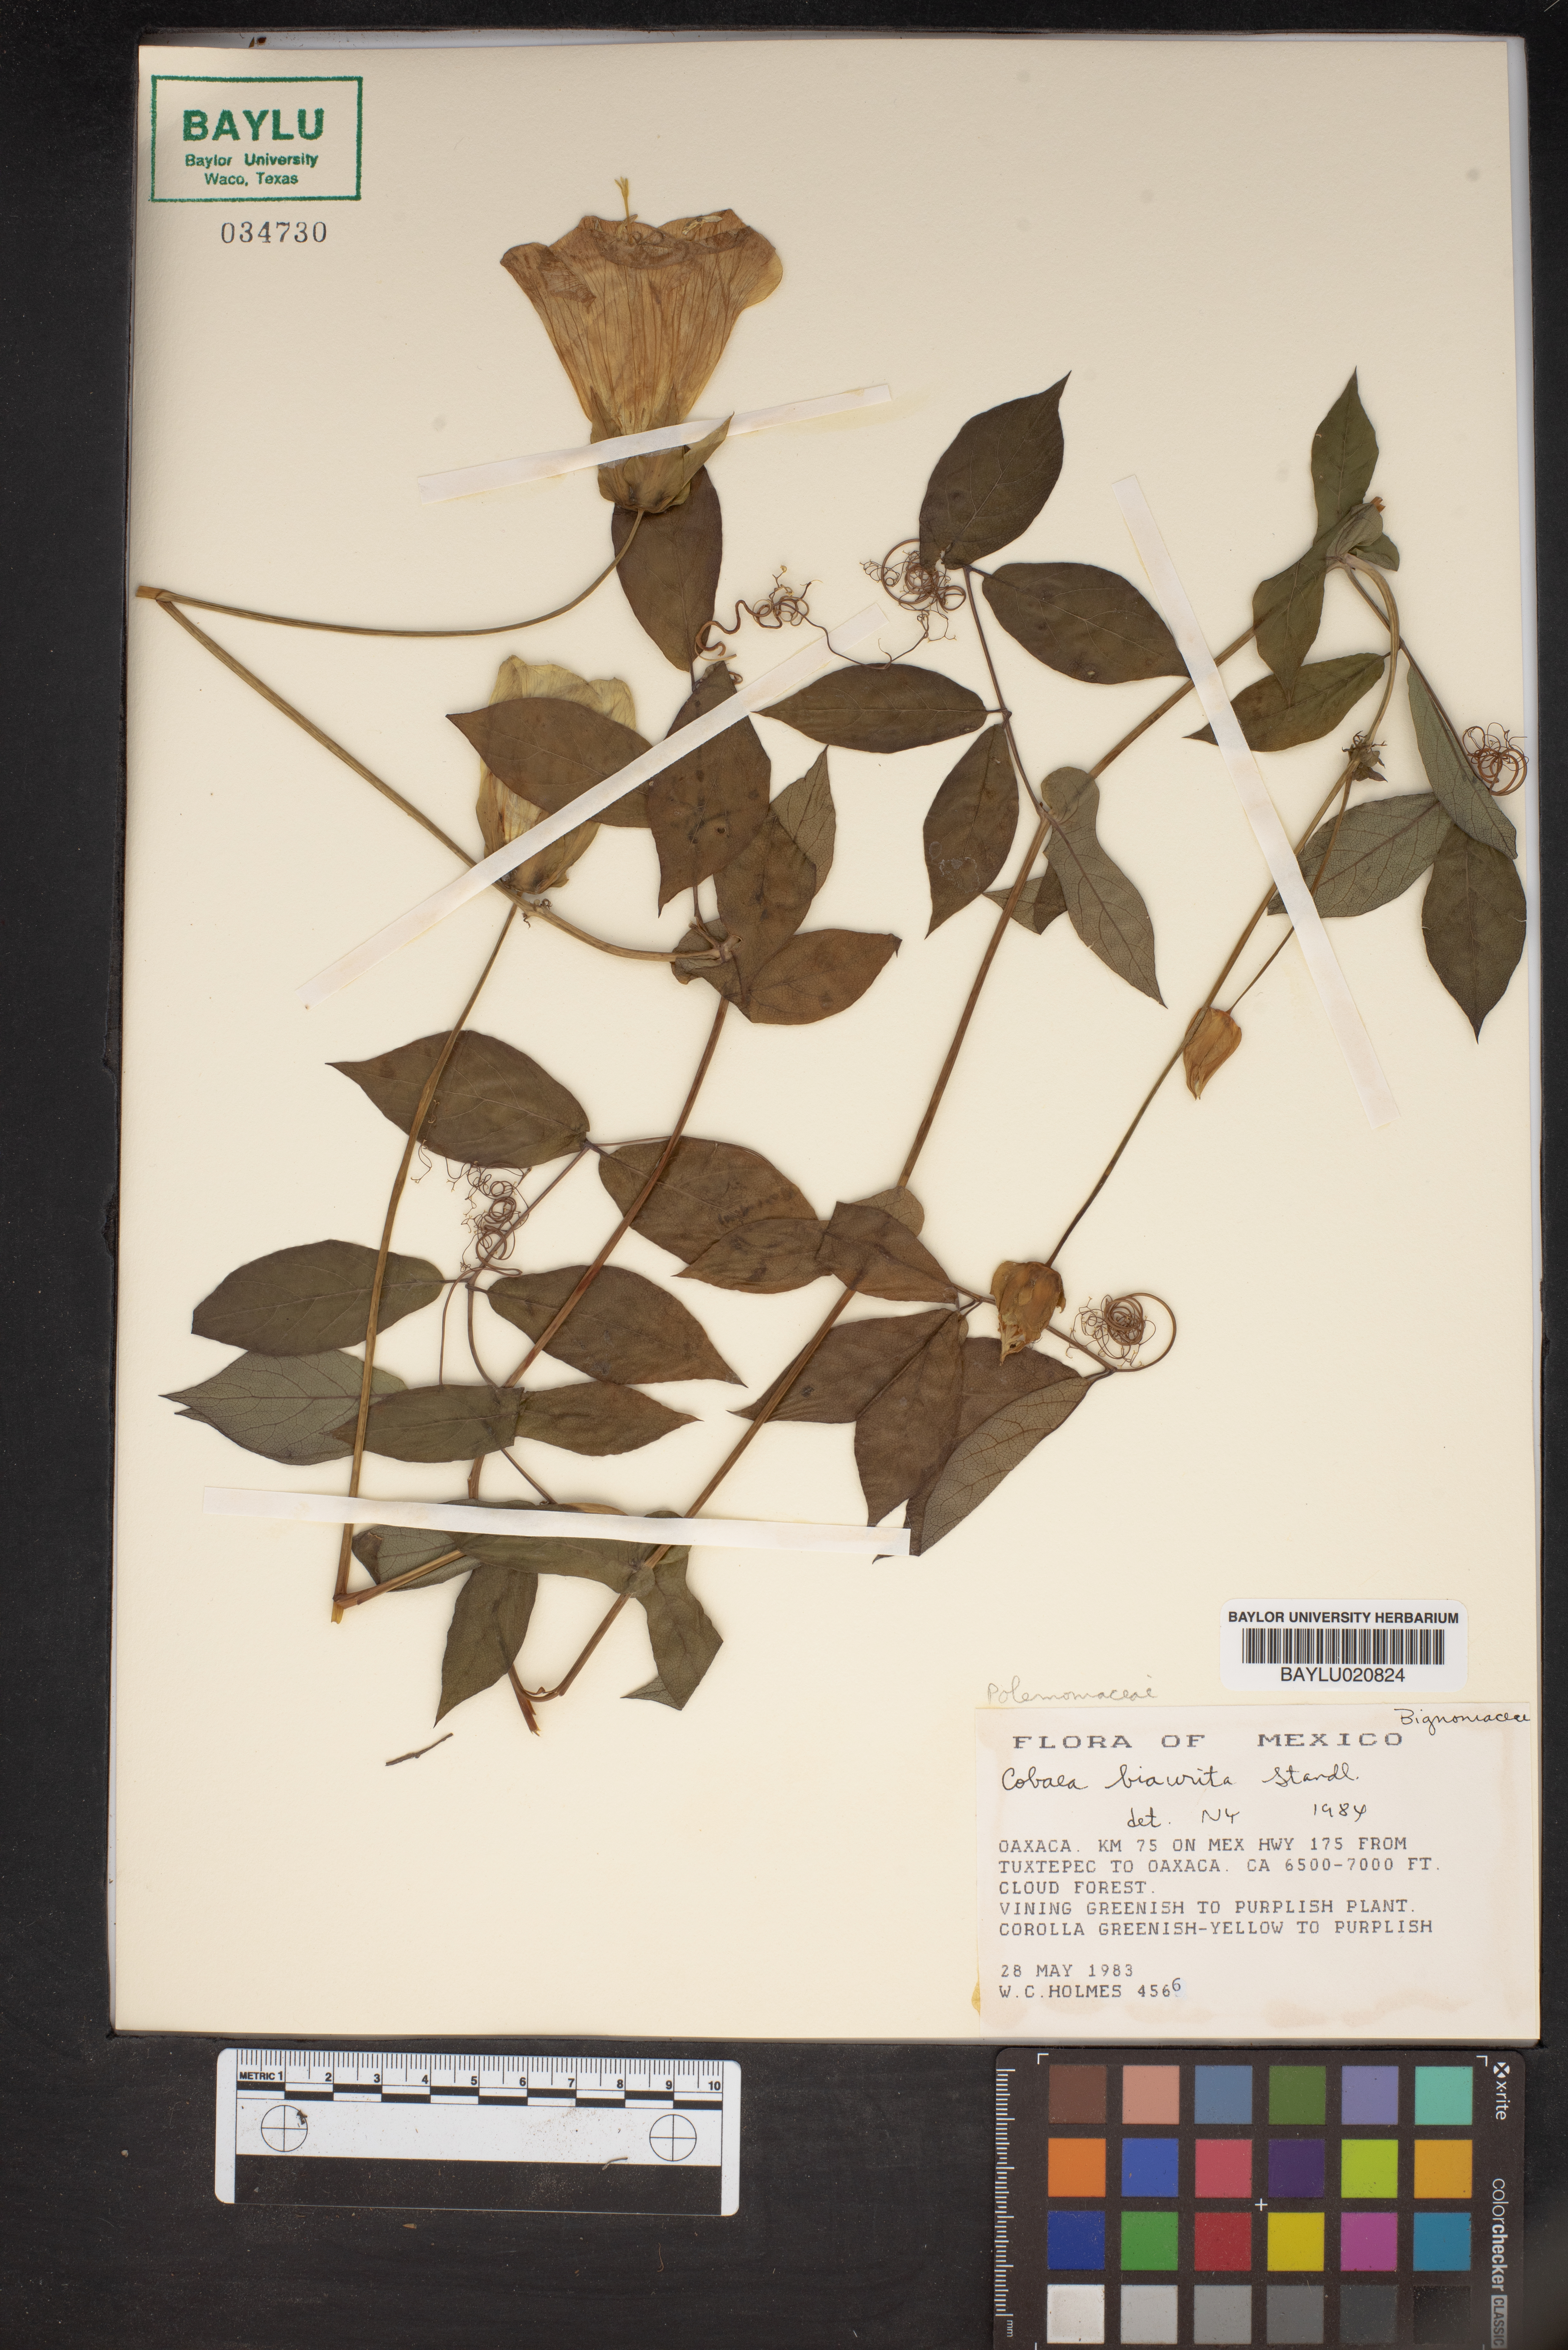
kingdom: Plantae
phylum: Tracheophyta
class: Magnoliopsida
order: Ericales
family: Polemoniaceae
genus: Cobaea
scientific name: Cobaea stipularis
